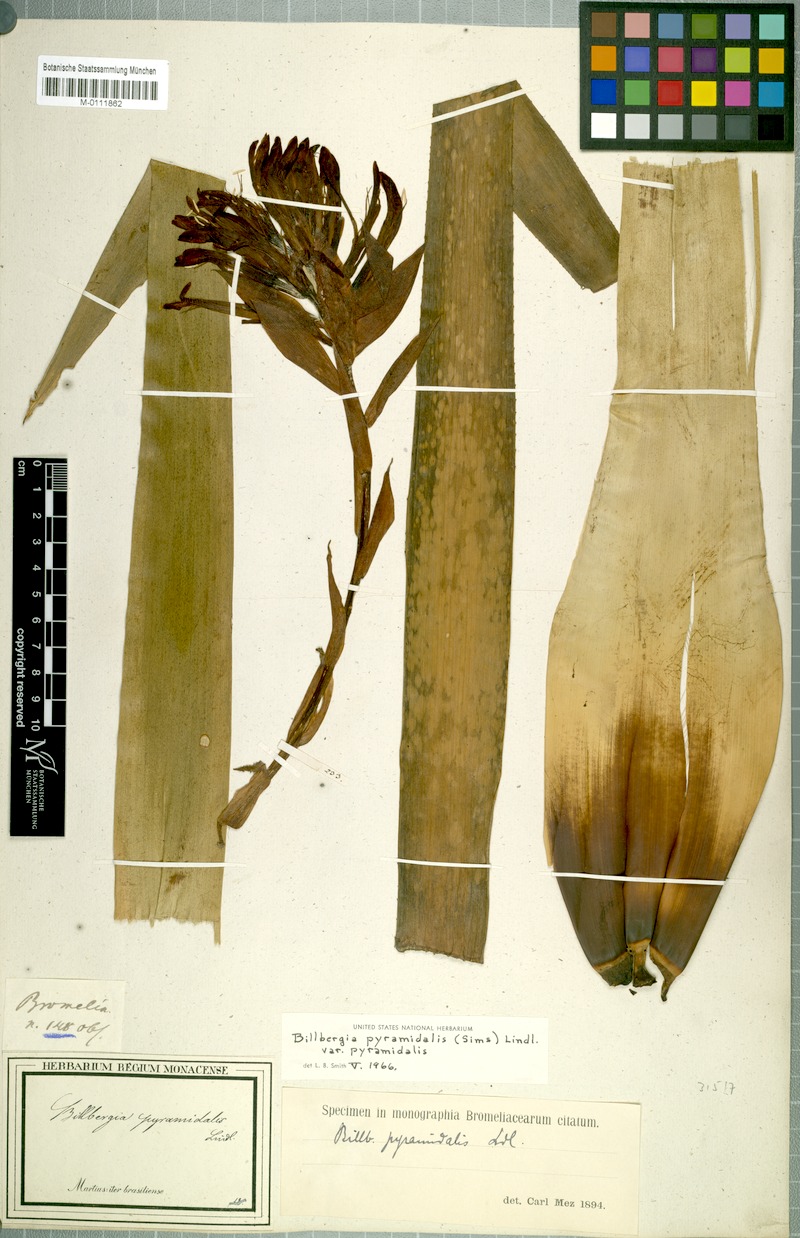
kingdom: Plantae
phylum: Tracheophyta
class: Liliopsida
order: Poales
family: Bromeliaceae
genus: Billbergia
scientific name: Billbergia pyramidalis
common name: Foolproofplant
